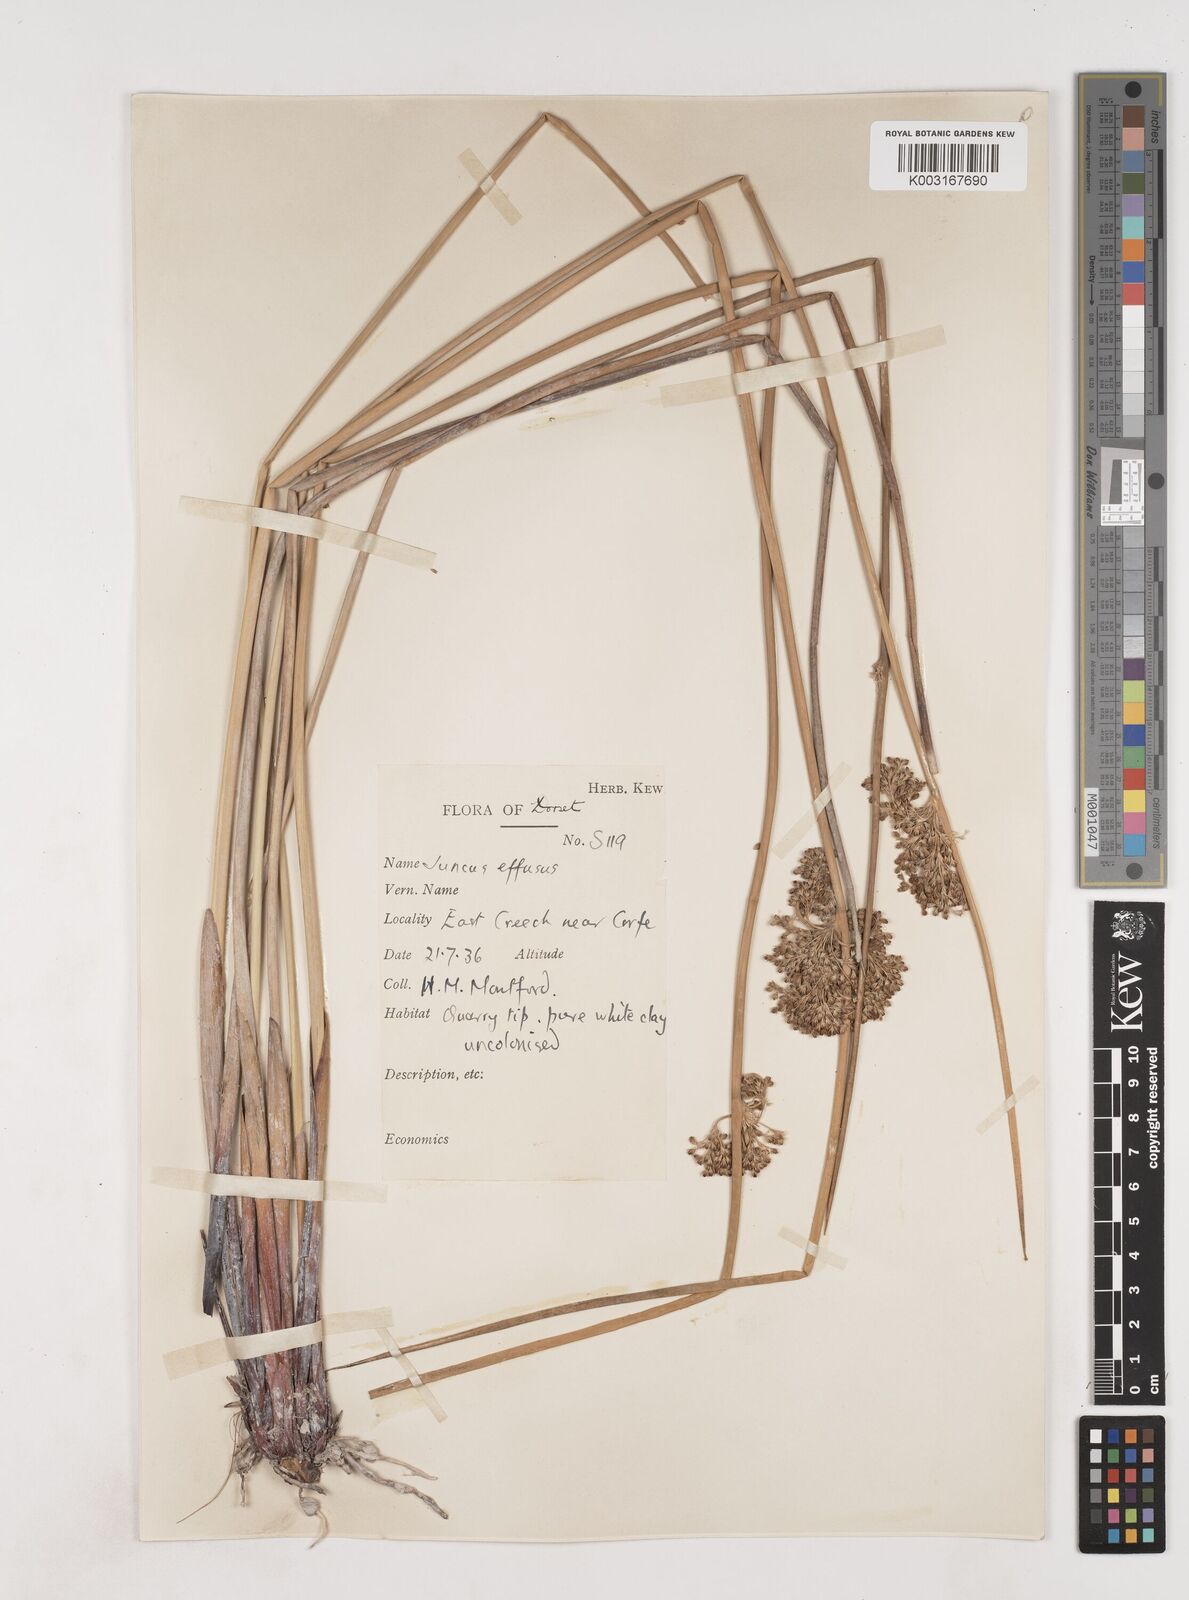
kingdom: Plantae
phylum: Tracheophyta
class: Liliopsida
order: Poales
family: Juncaceae
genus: Juncus
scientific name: Juncus effusus
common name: Soft rush
